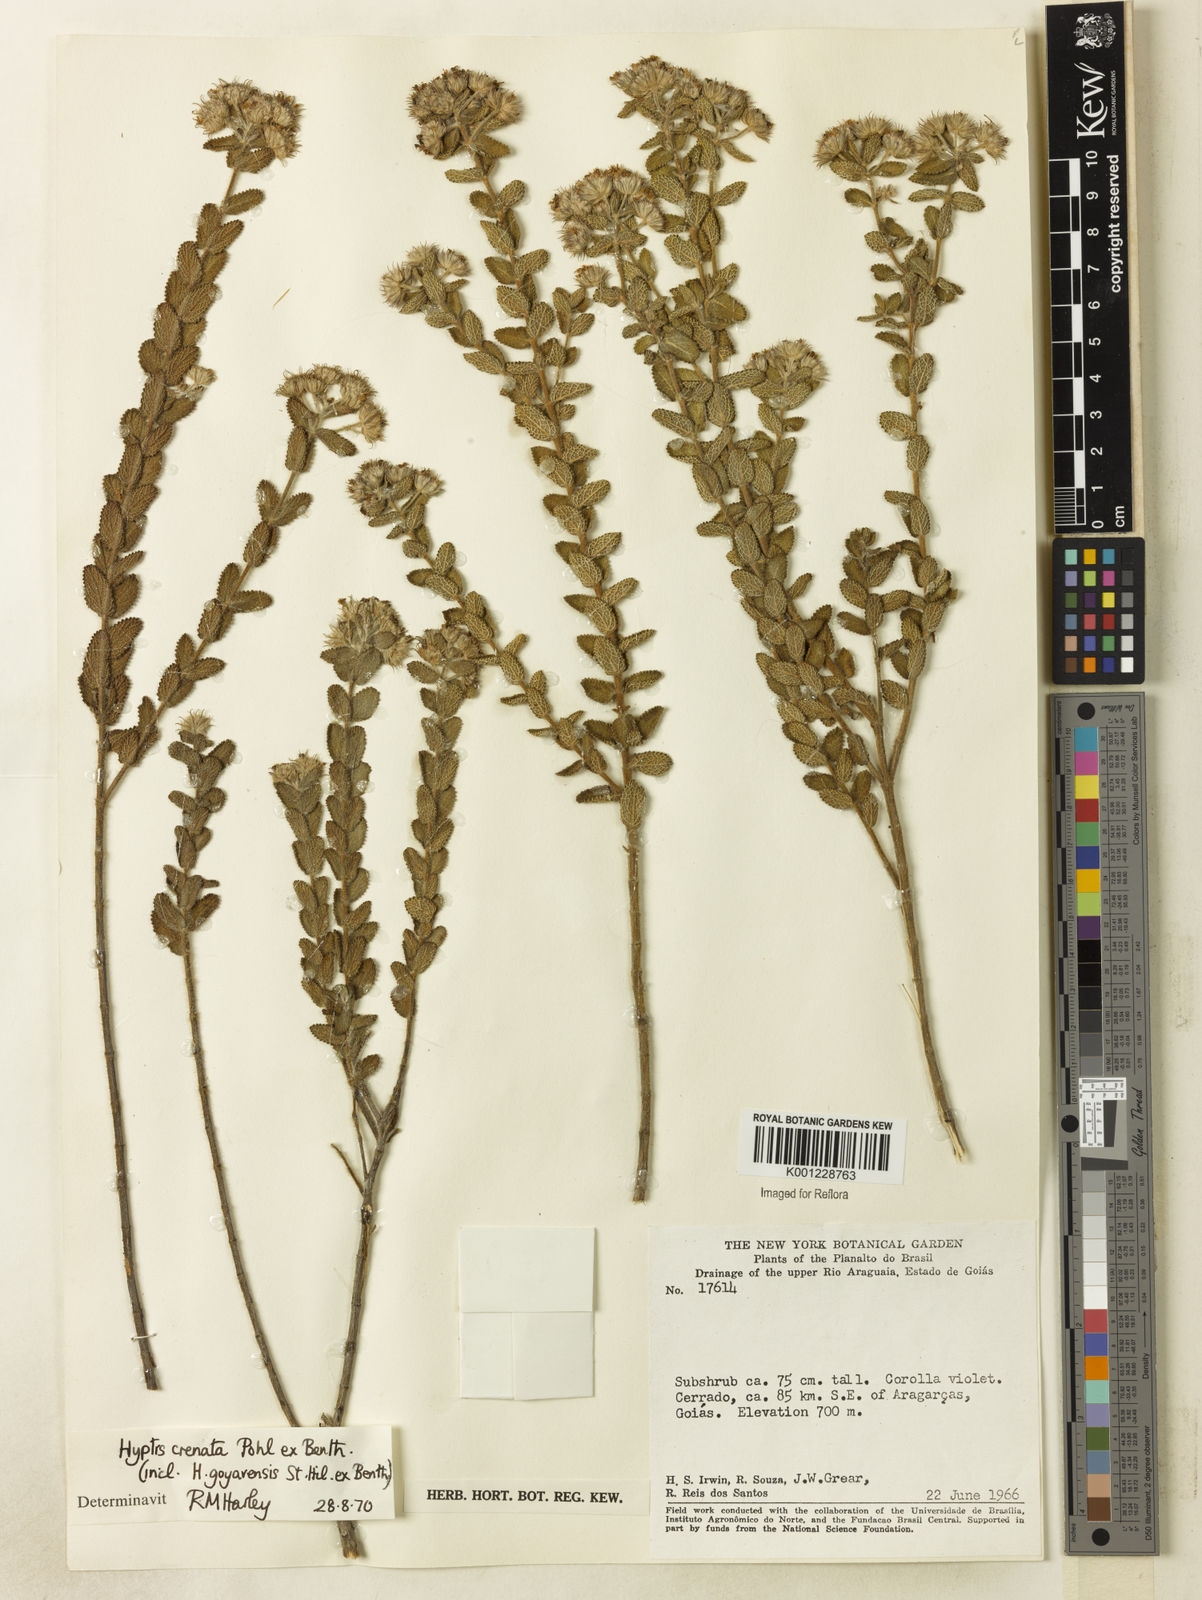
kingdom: Plantae
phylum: Tracheophyta
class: Magnoliopsida
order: Lamiales
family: Lamiaceae
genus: Hyptis
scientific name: Hyptis crenata
